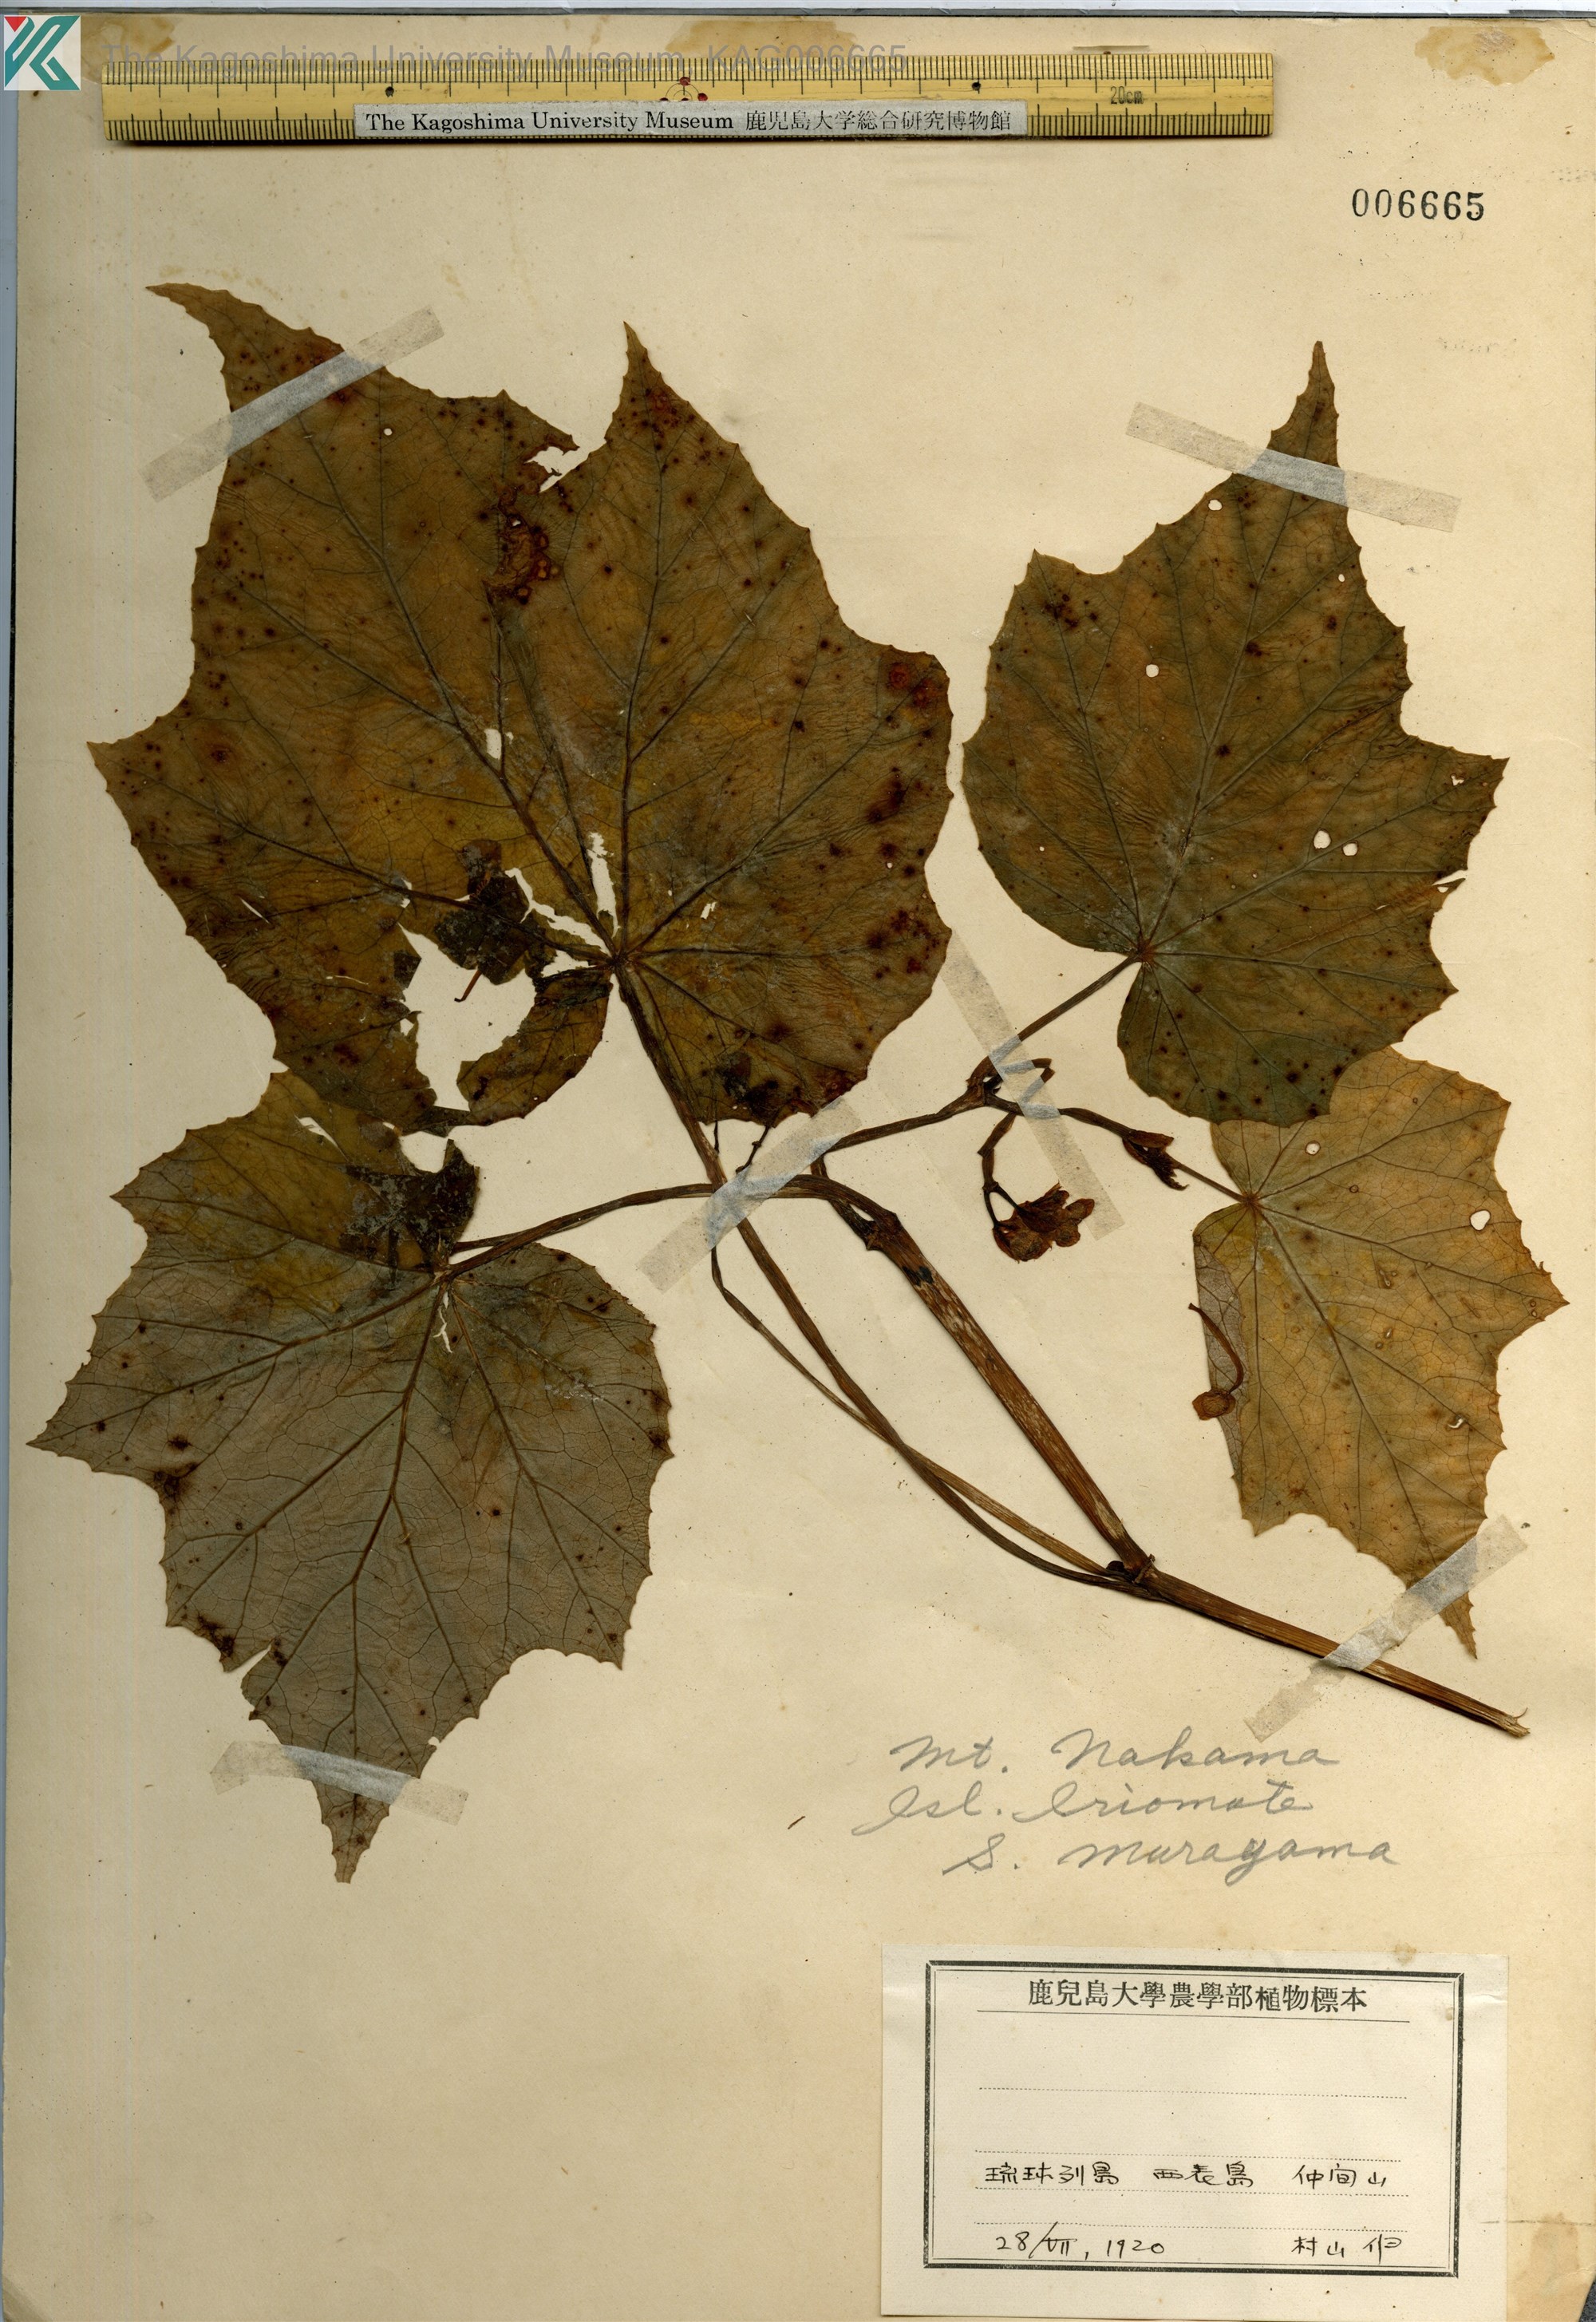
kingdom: Plantae
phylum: Tracheophyta
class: Magnoliopsida
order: Cucurbitales
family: Begoniaceae
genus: Begonia
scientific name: Begonia palmata
